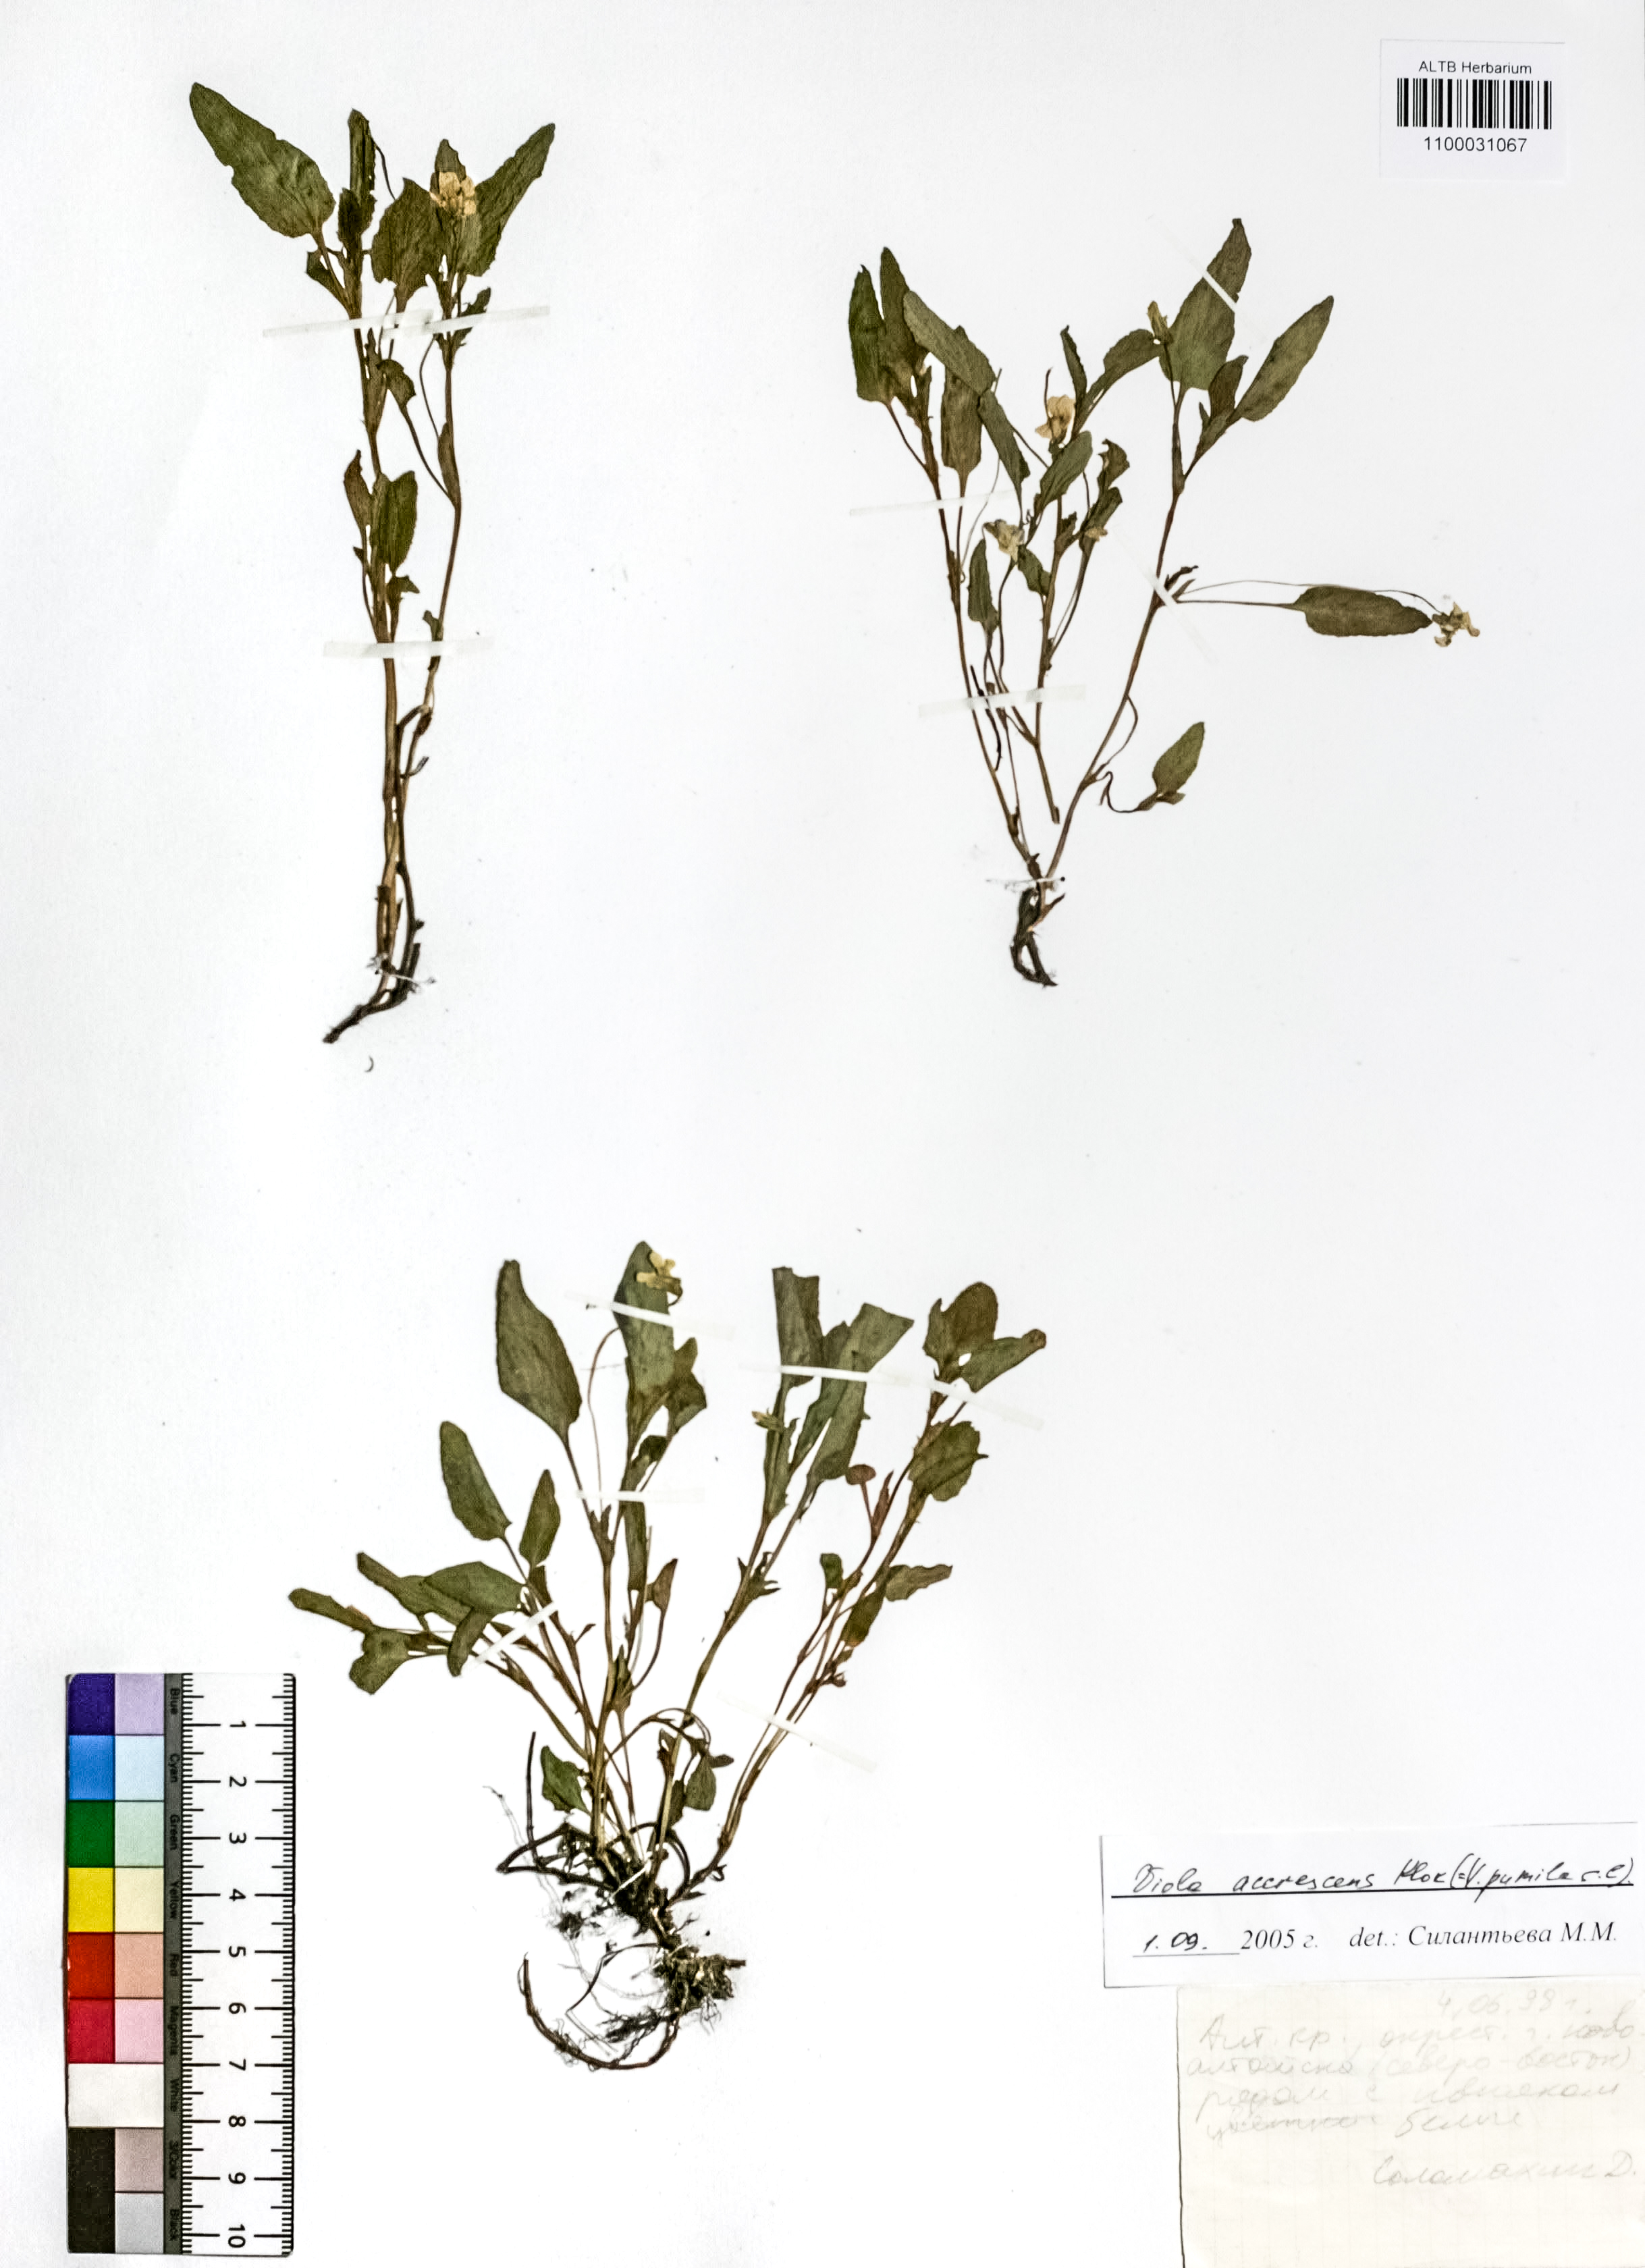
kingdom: Plantae
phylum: Tracheophyta
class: Magnoliopsida
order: Malpighiales
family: Violaceae
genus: Viola
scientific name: Viola pumila
